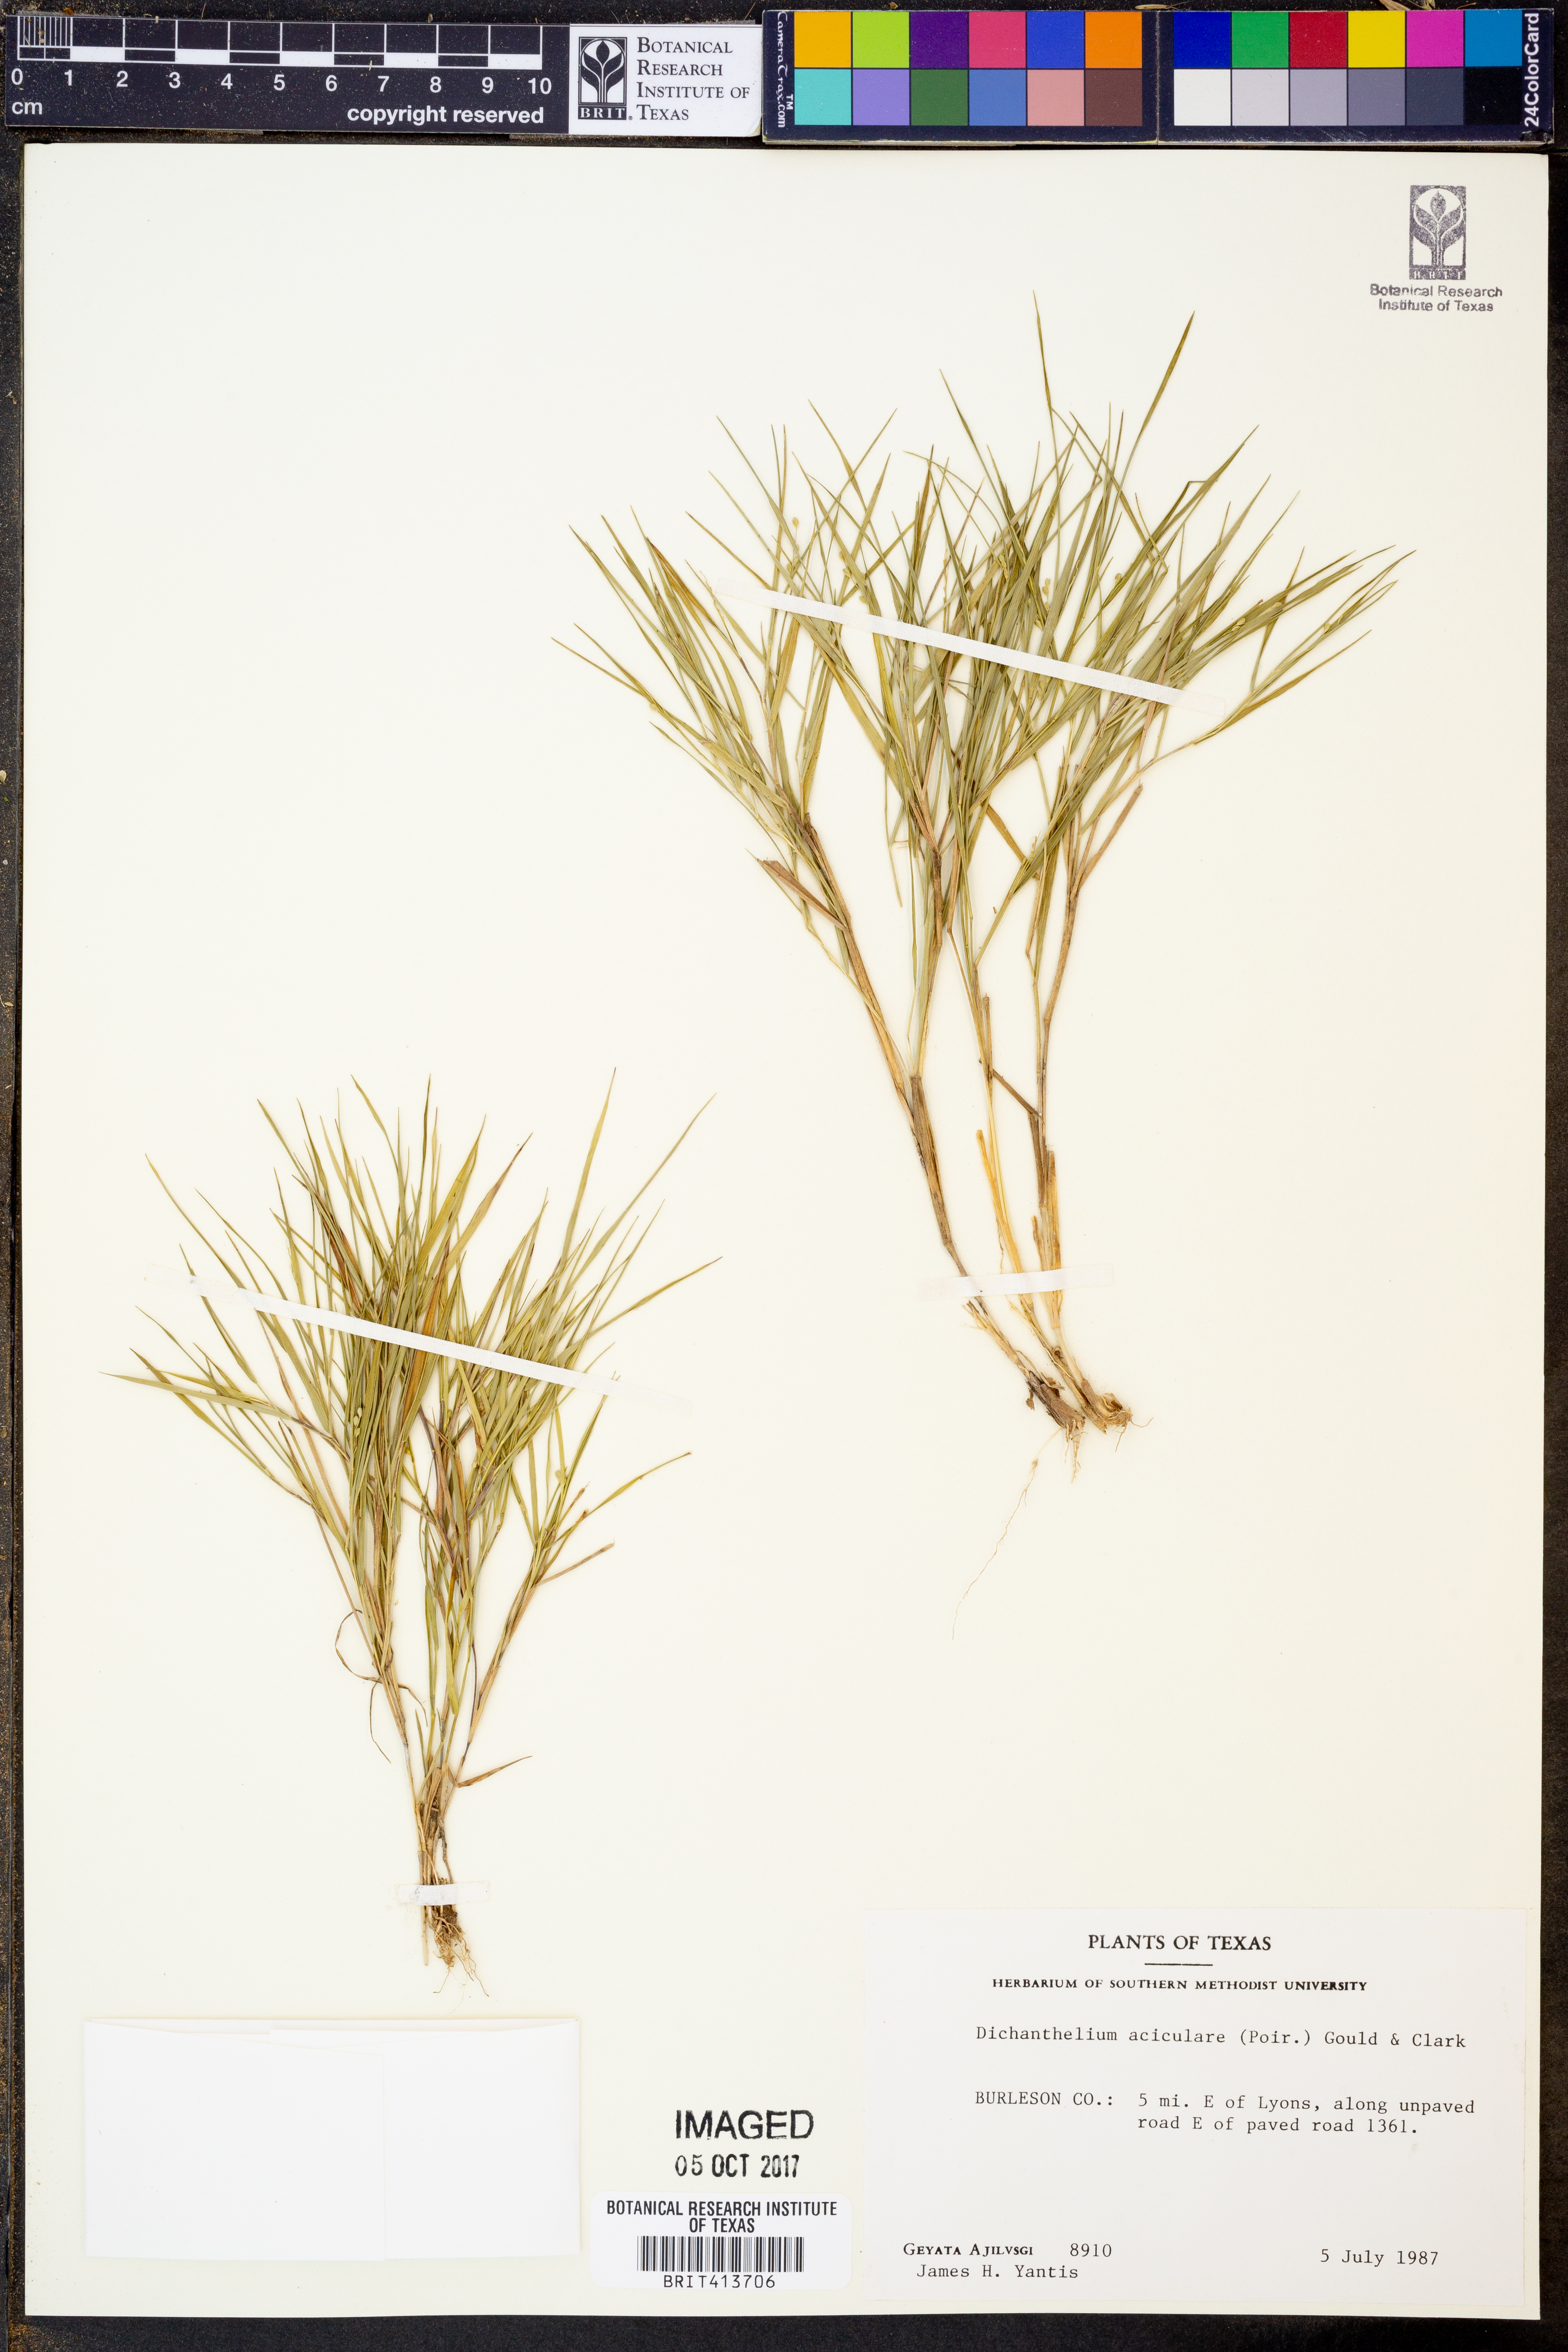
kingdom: Plantae
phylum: Tracheophyta
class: Liliopsida
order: Poales
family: Poaceae
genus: Dichanthelium
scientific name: Dichanthelium aciculare
